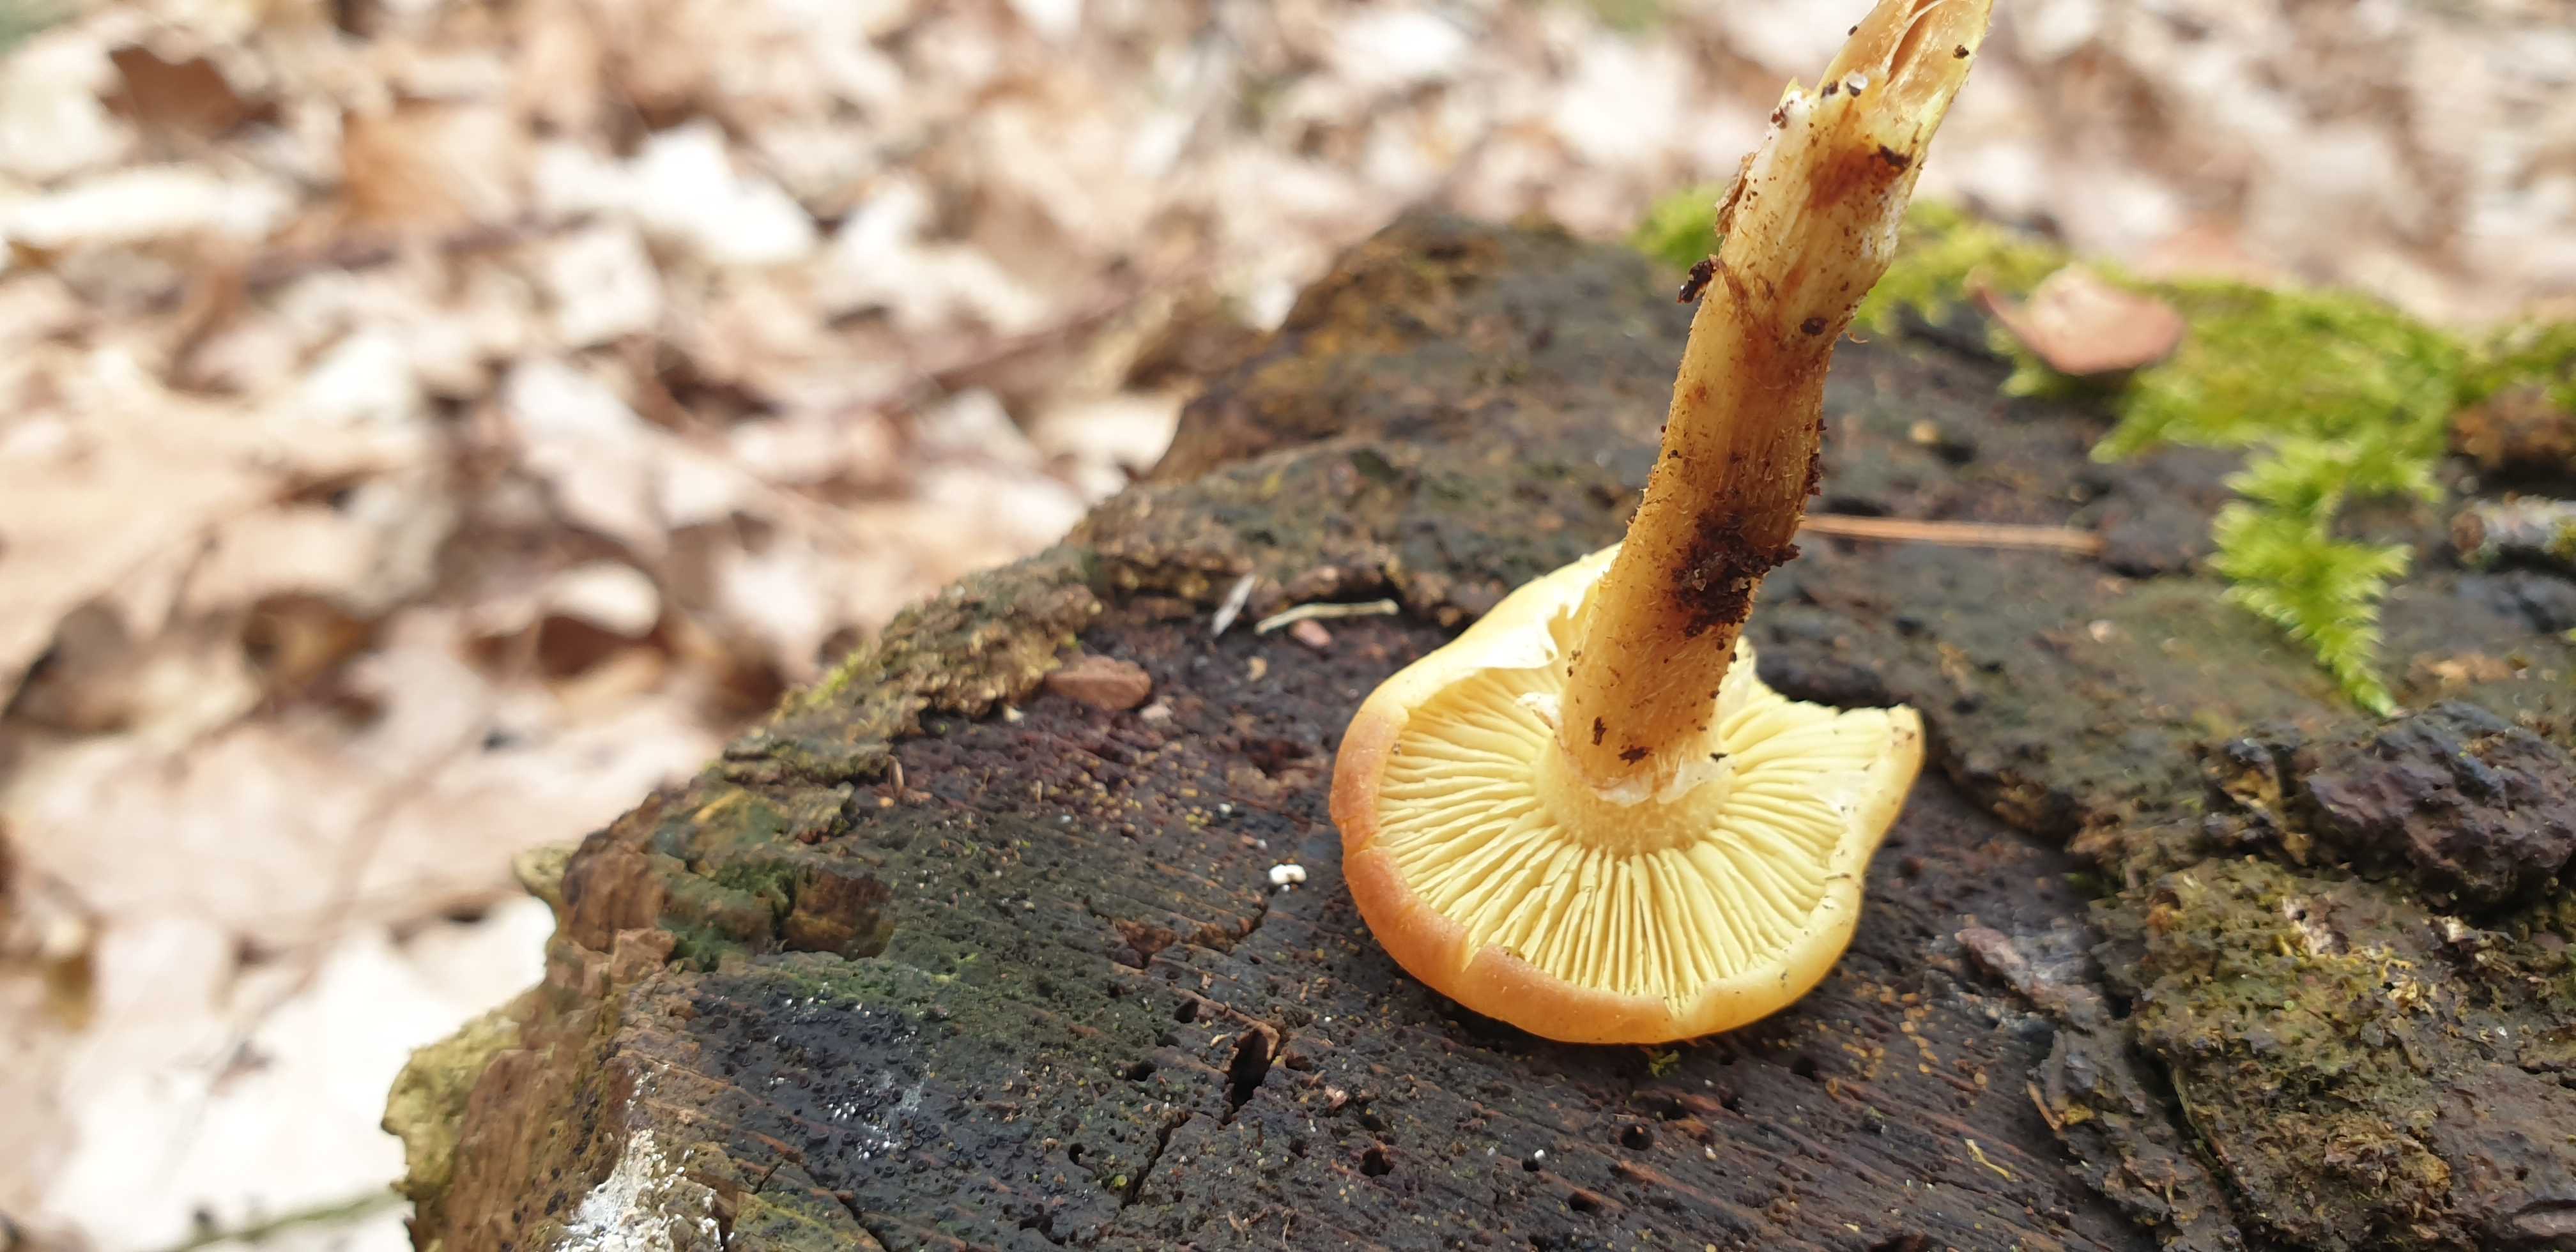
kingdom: Fungi
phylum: Basidiomycota
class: Agaricomycetes
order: Agaricales
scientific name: Agaricales
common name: champignonordenen
